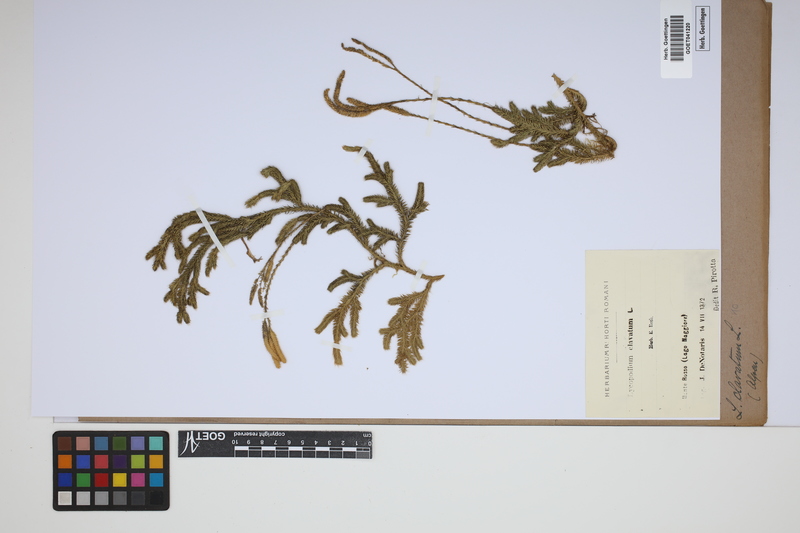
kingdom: Plantae
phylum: Tracheophyta
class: Lycopodiopsida
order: Lycopodiales
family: Lycopodiaceae
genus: Lycopodium
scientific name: Lycopodium clavatum
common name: Stag's-horn clubmoss
